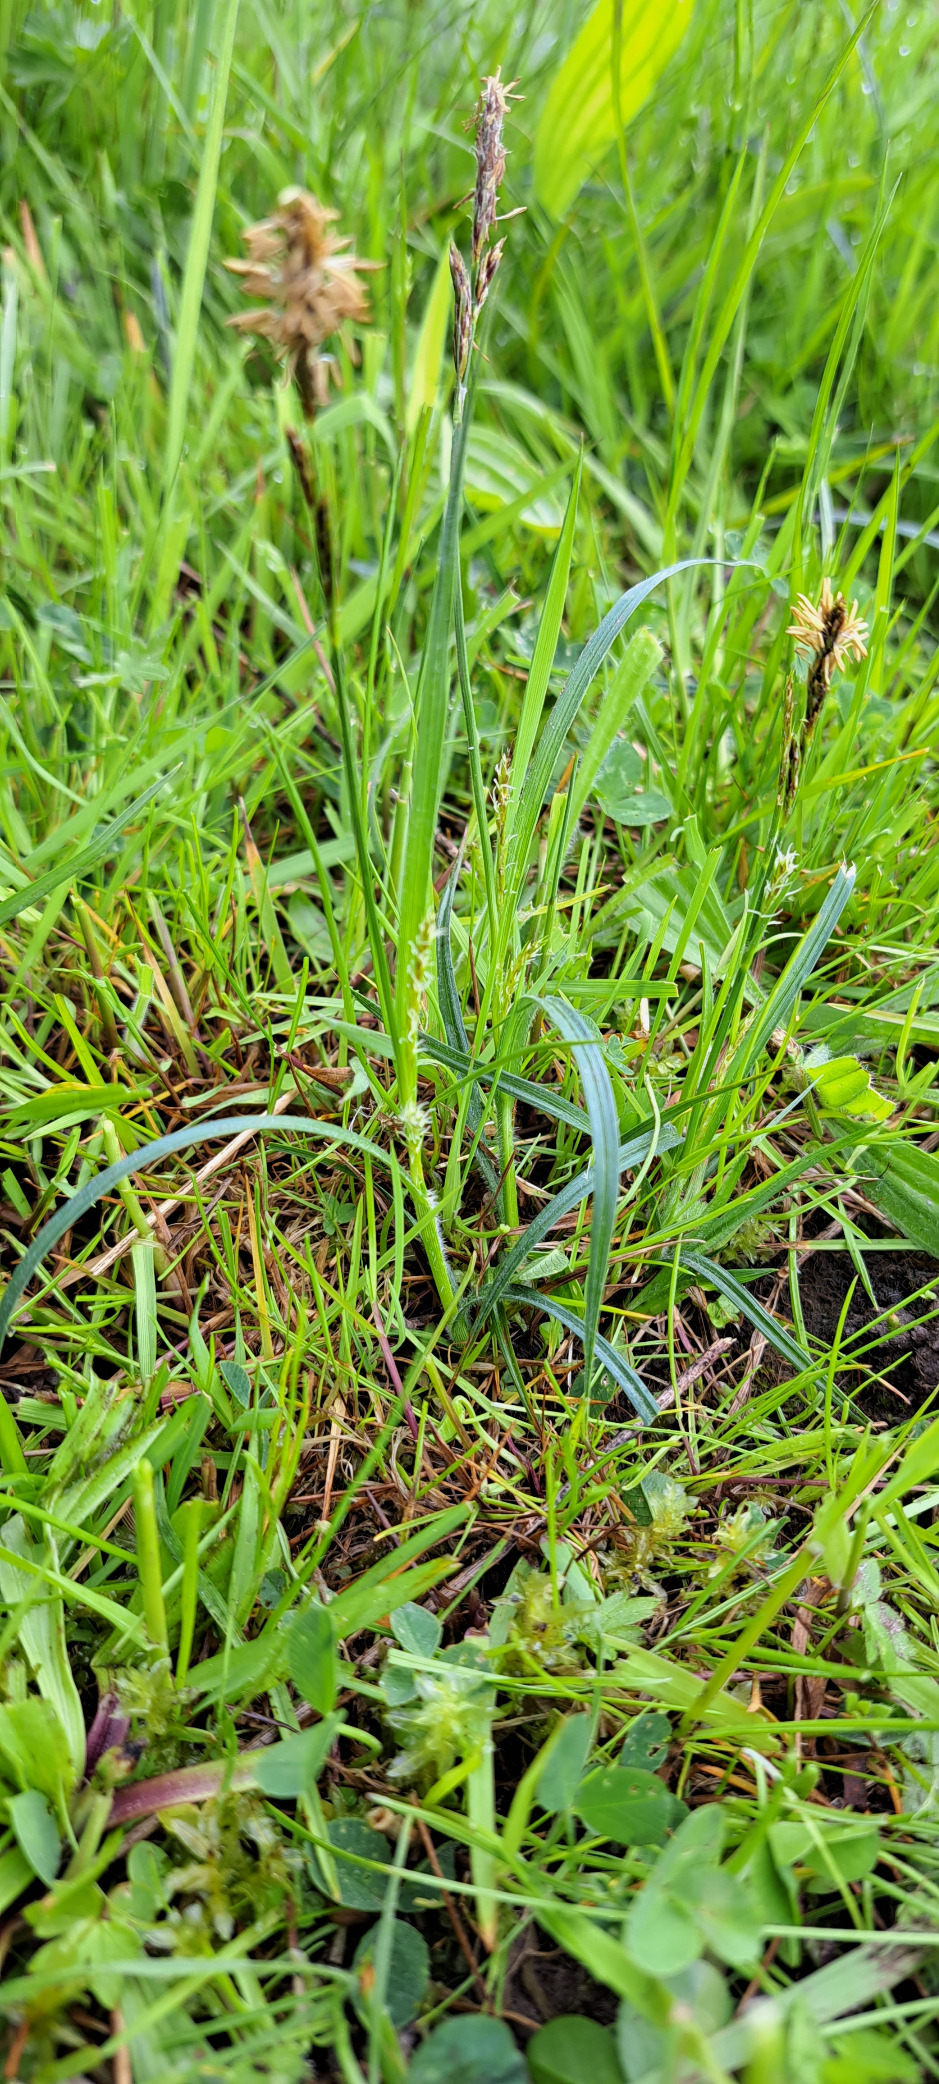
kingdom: Plantae
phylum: Tracheophyta
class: Liliopsida
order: Poales
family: Cyperaceae
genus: Carex
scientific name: Carex hirta
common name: Håret star
